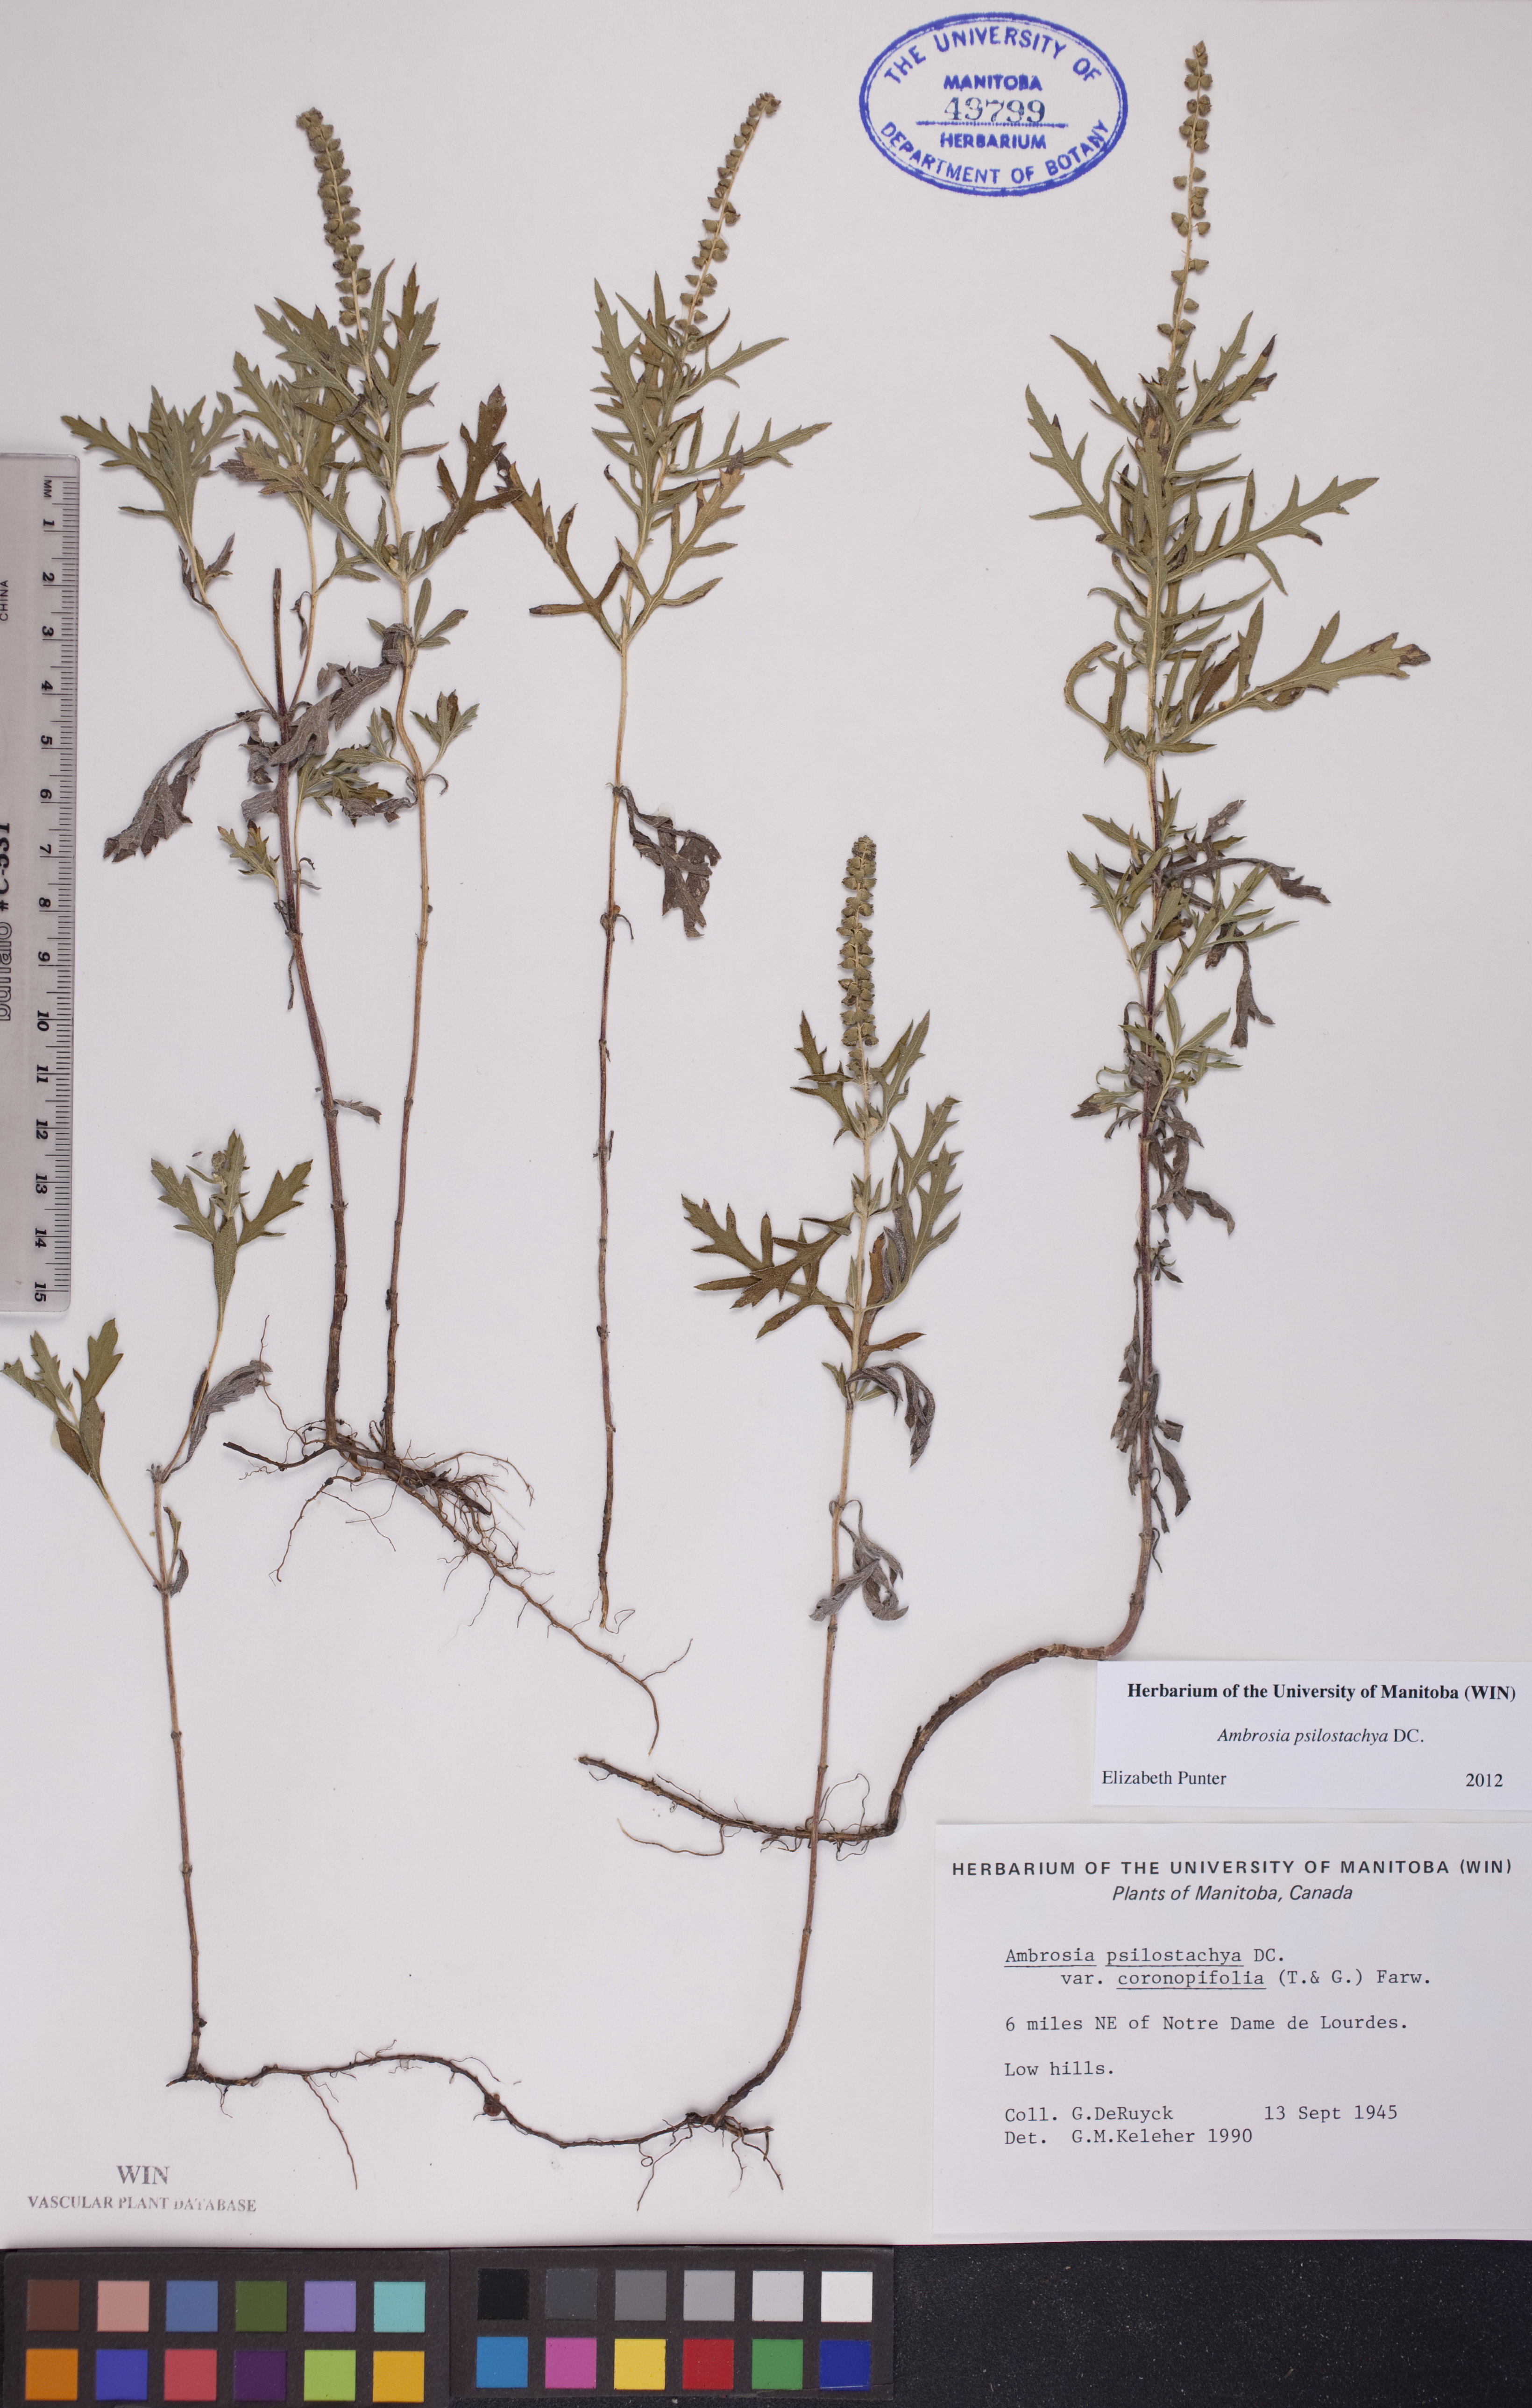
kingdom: Plantae
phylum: Tracheophyta
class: Magnoliopsida
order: Asterales
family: Asteraceae
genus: Ambrosia
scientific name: Ambrosia psilostachya
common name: Perennial ragweed
